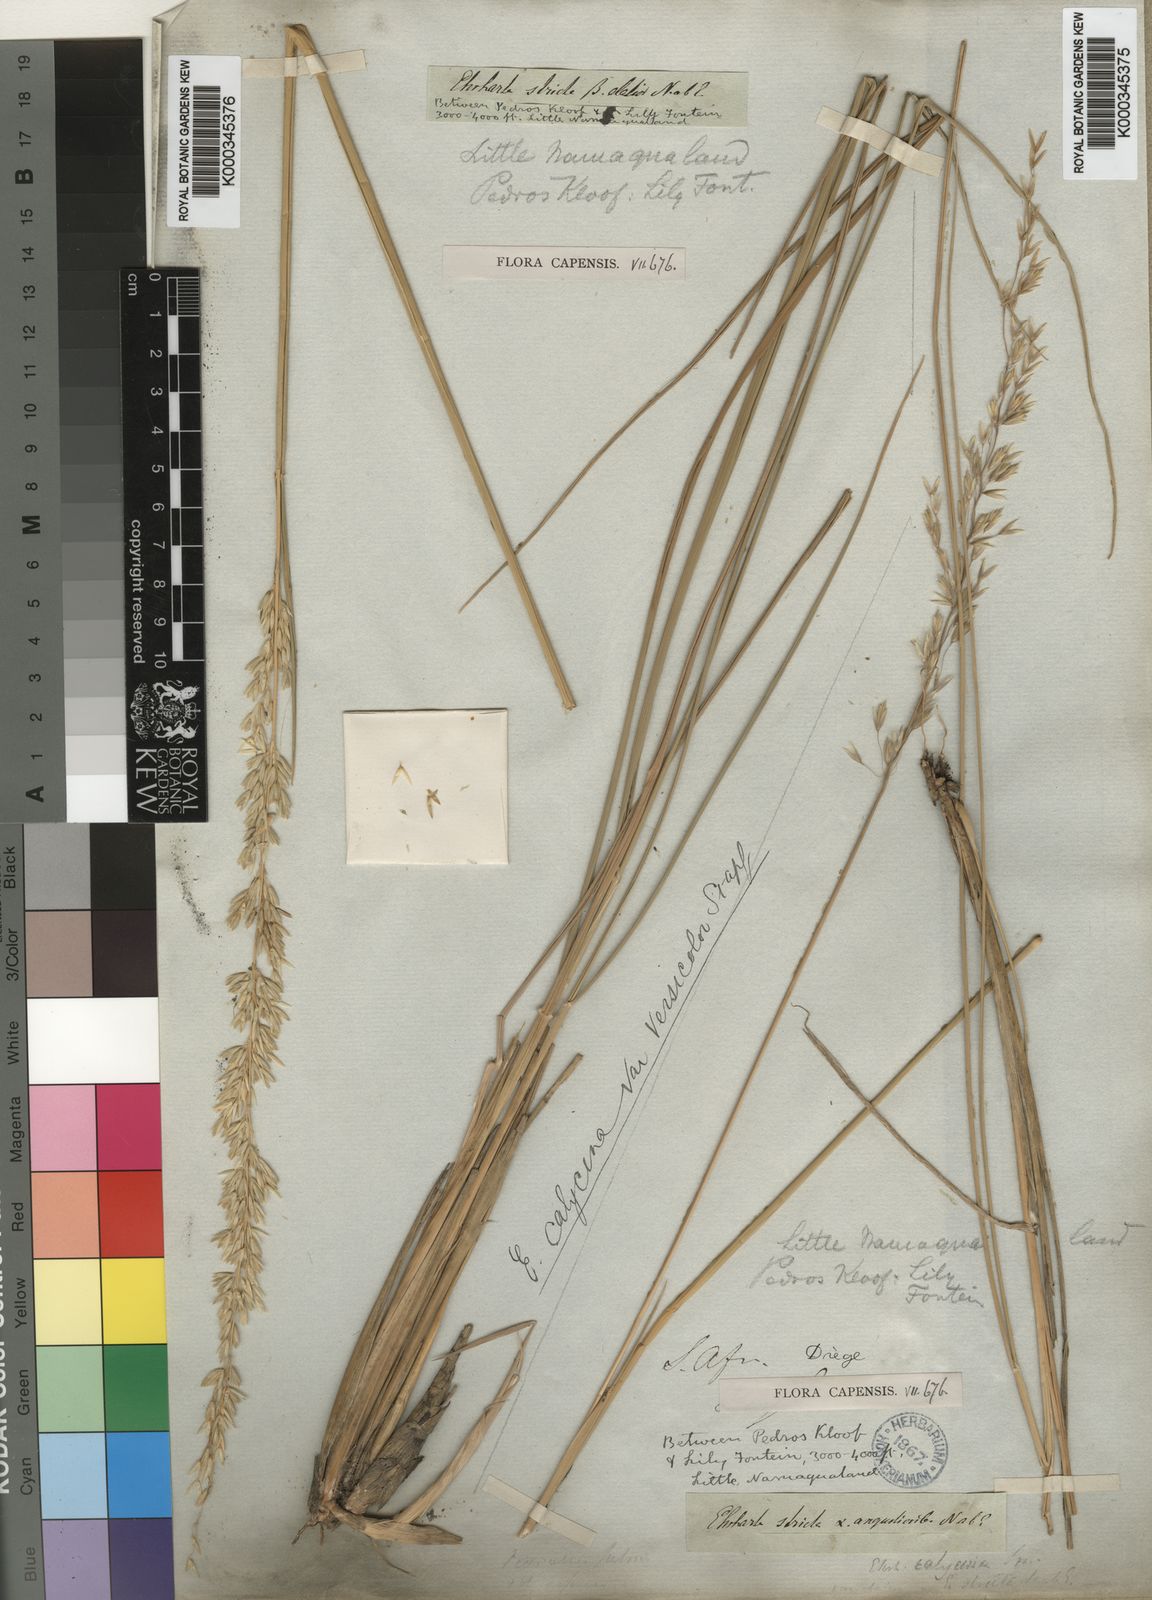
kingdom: Plantae
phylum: Tracheophyta
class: Liliopsida
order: Poales
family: Poaceae
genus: Ehrharta
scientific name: Ehrharta calycina
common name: Perennial veldtgrass
